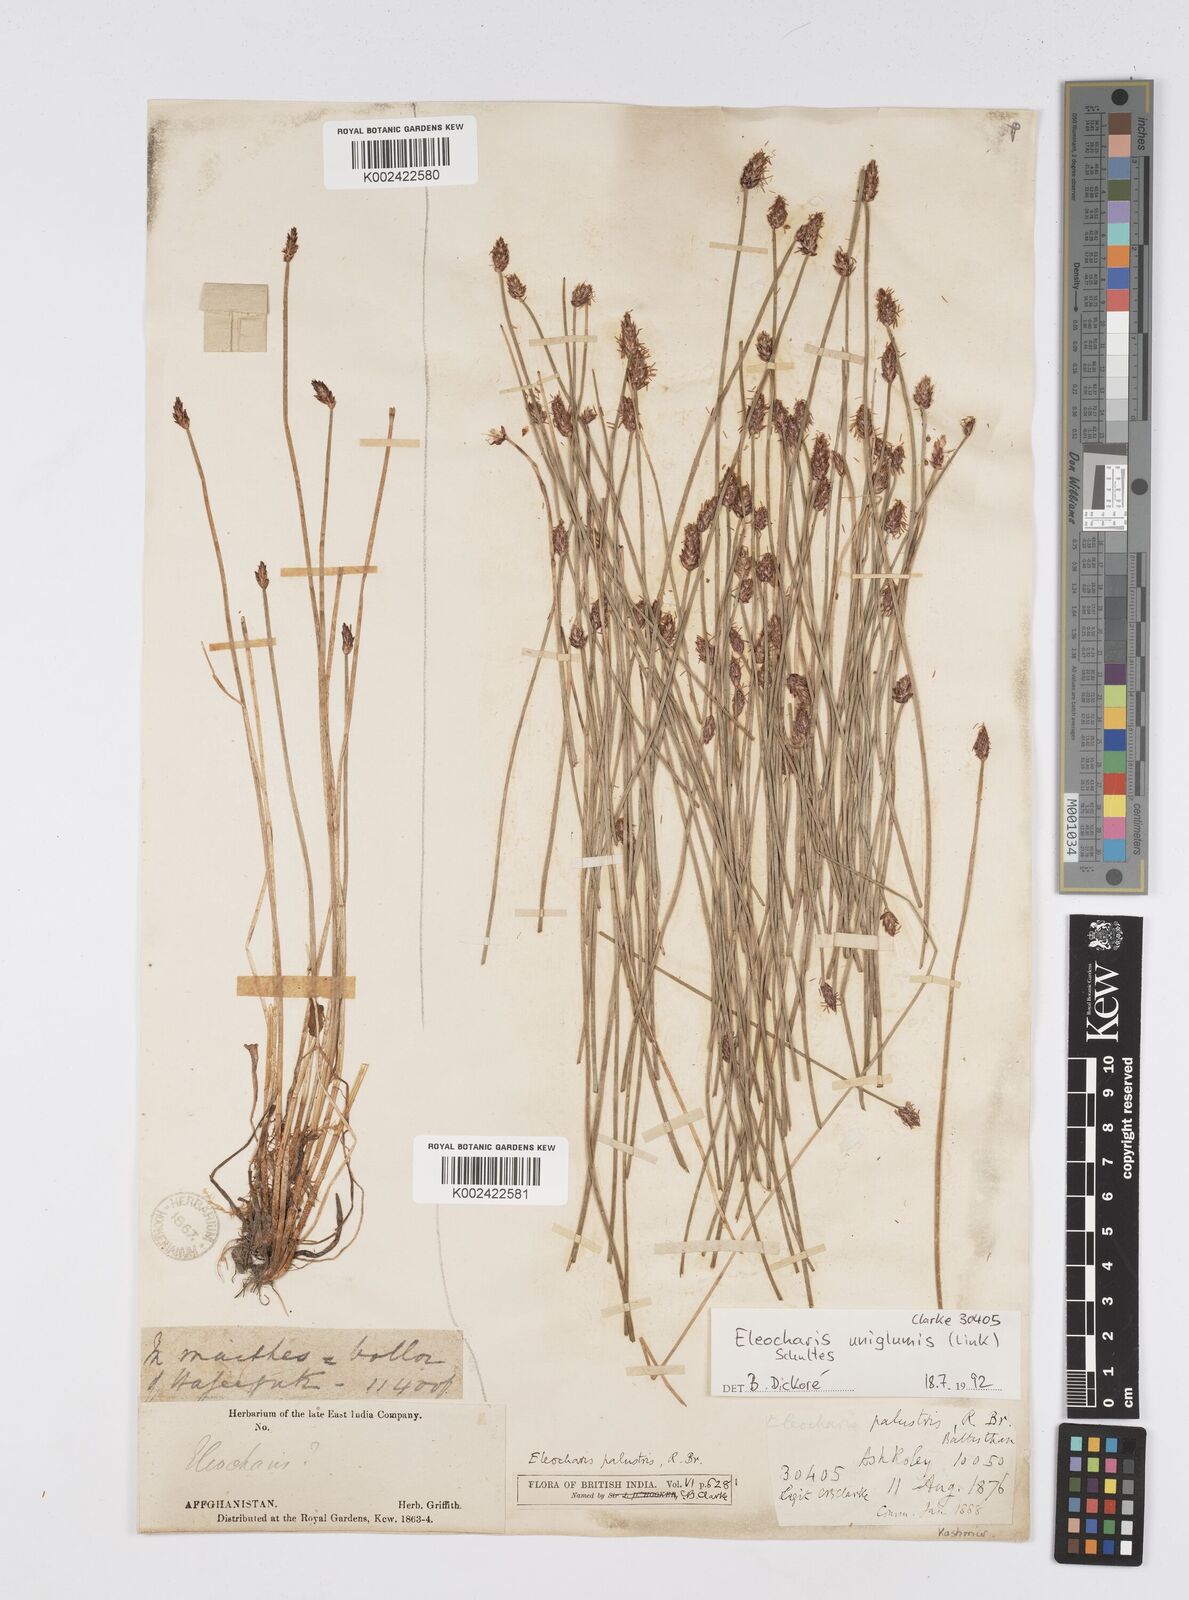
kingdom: Plantae
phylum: Tracheophyta
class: Liliopsida
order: Poales
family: Cyperaceae
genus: Eleocharis
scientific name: Eleocharis uniglumis
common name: Slender spike-rush
